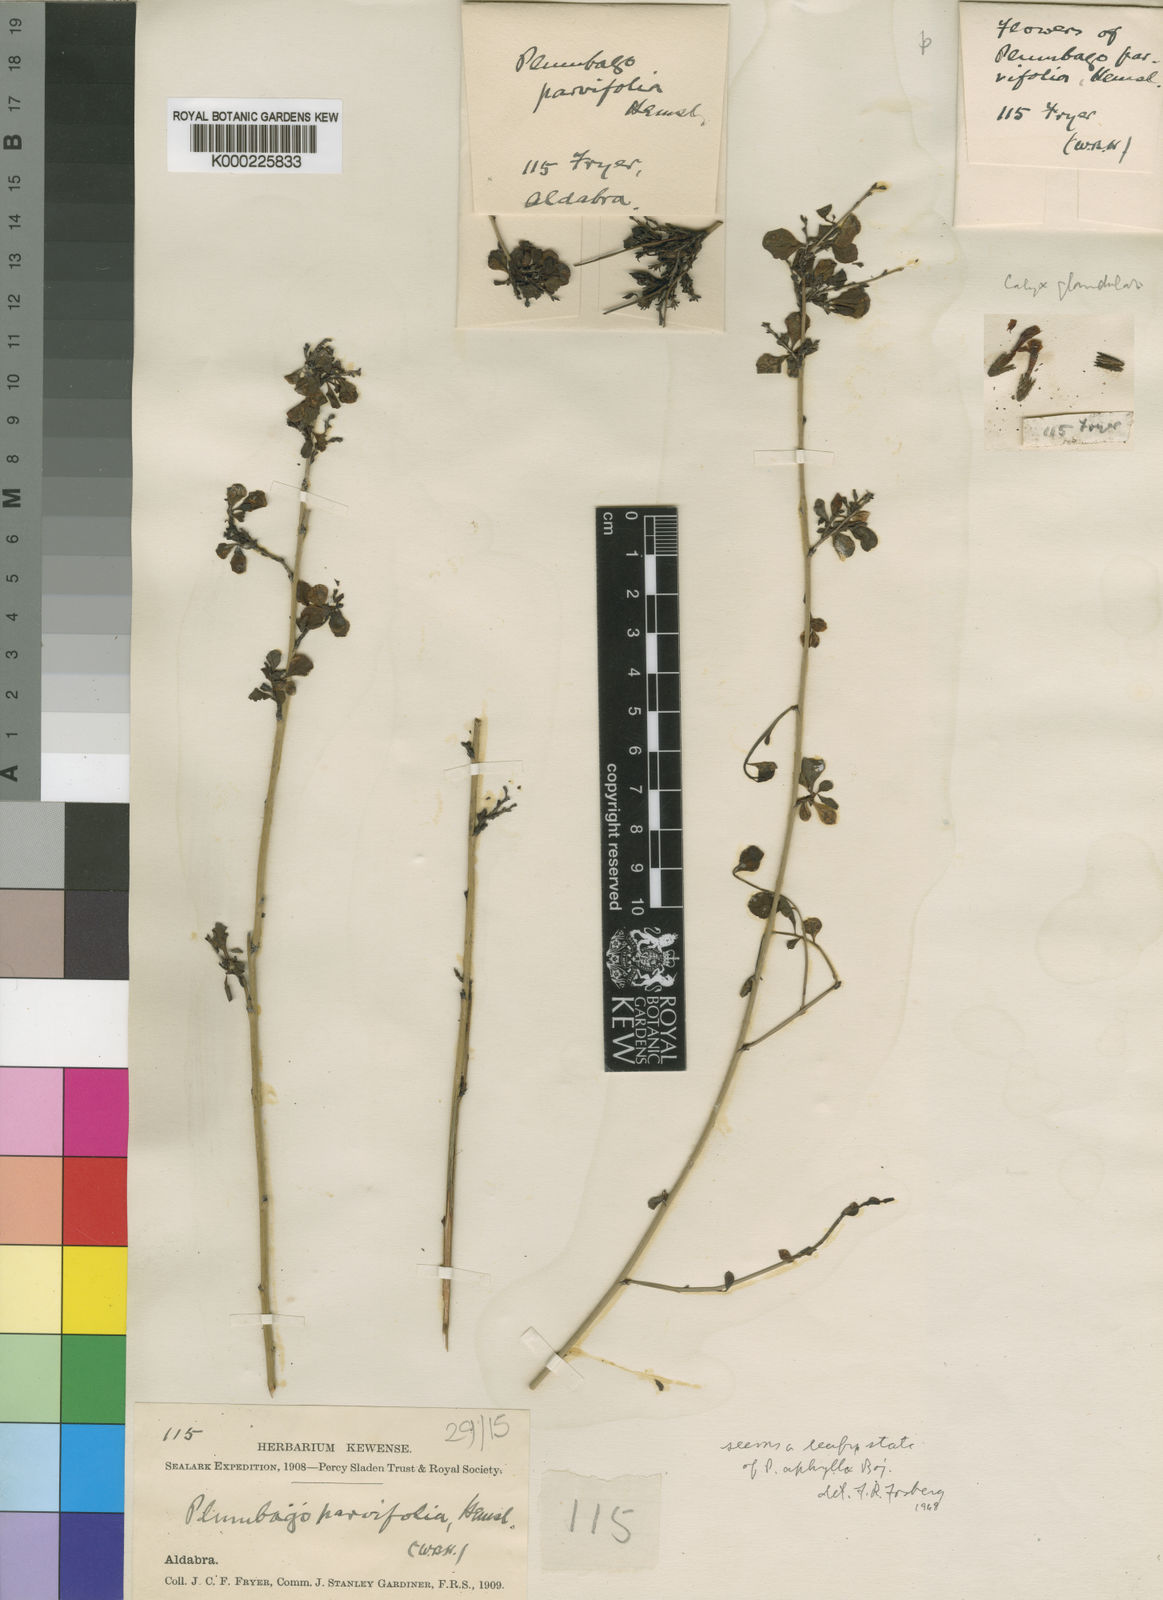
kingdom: Plantae
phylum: Tracheophyta
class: Magnoliopsida
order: Caryophyllales
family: Plumbaginaceae
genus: Plumbago
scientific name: Plumbago aphylla
